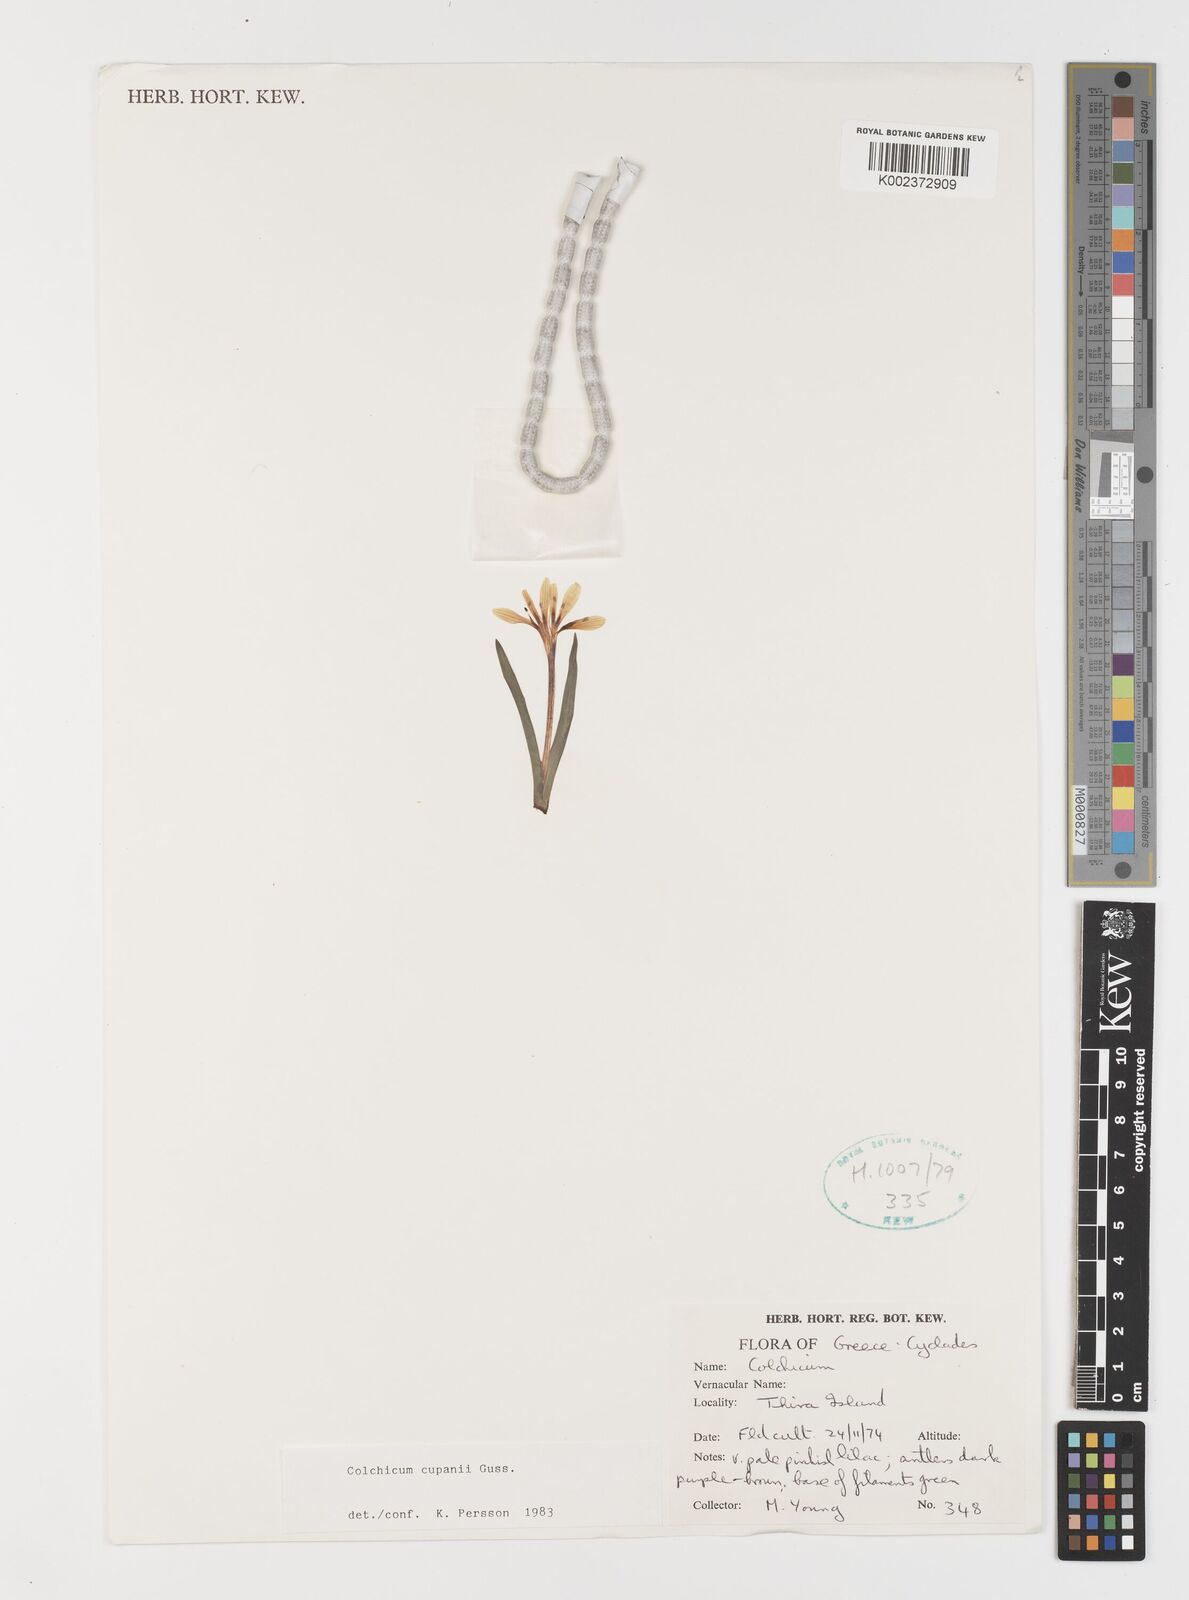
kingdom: Plantae
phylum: Tracheophyta
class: Liliopsida
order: Liliales
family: Colchicaceae
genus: Colchicum
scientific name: Colchicum cupanii
